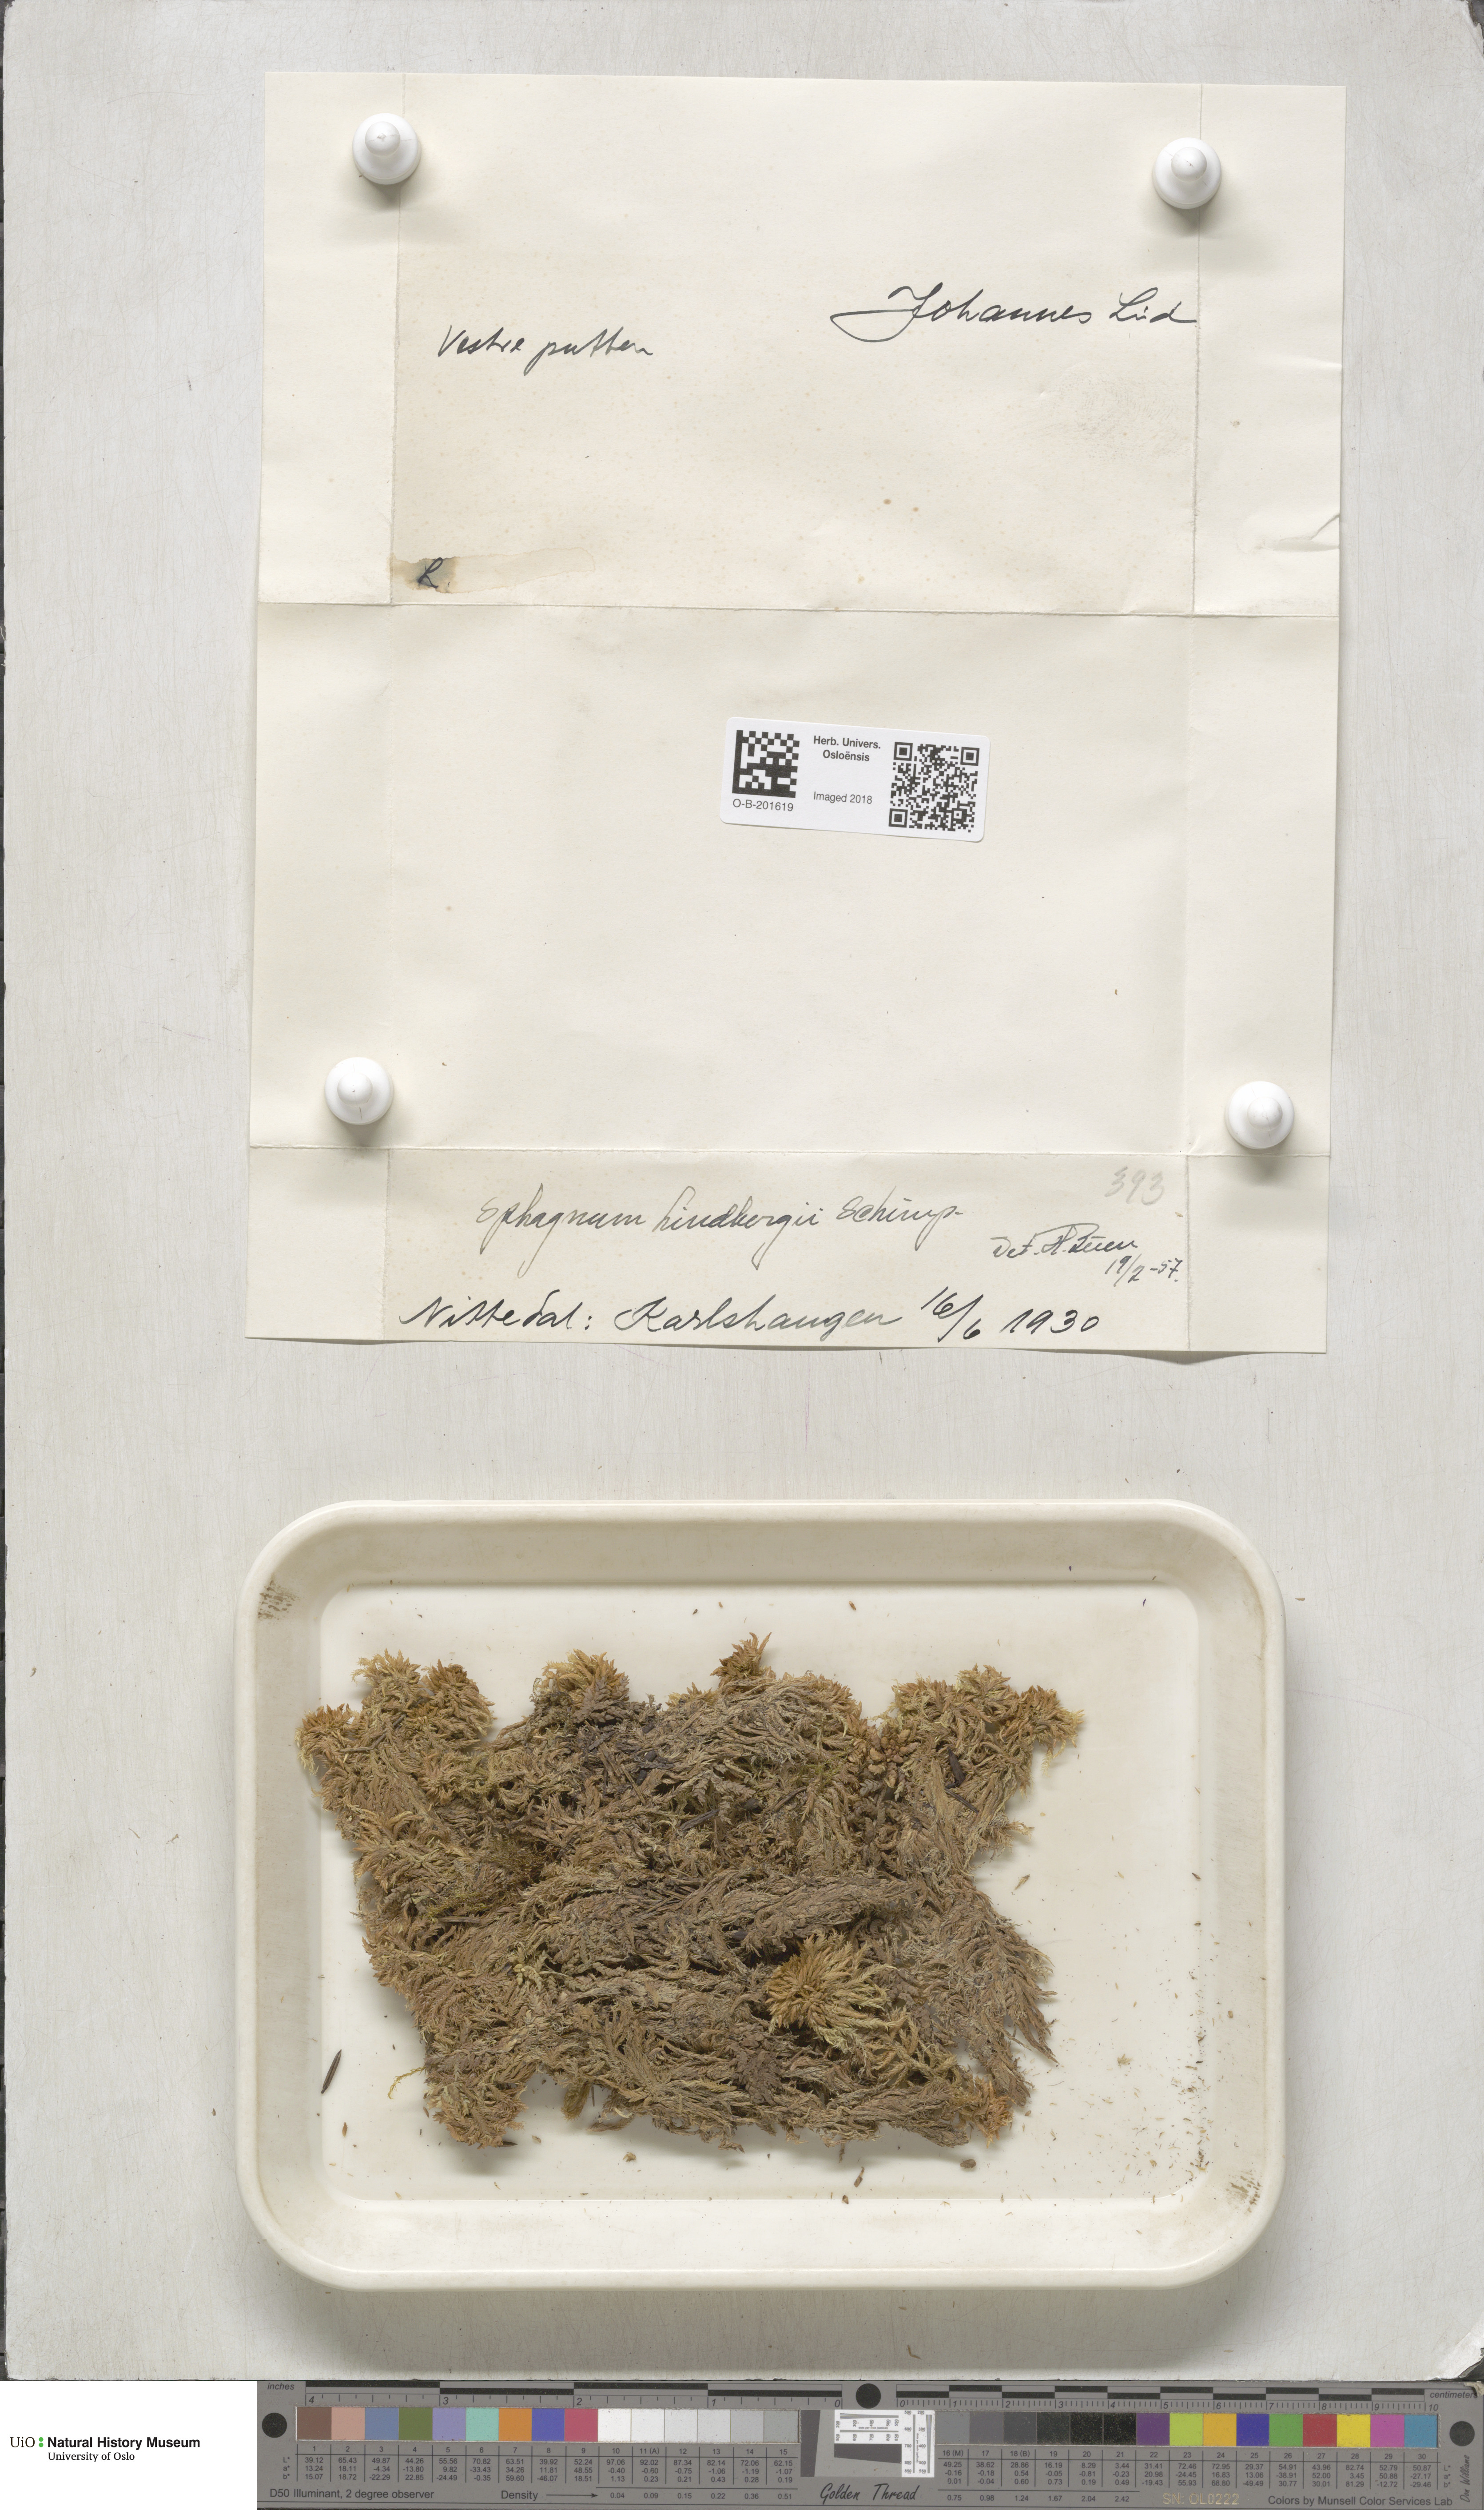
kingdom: Plantae
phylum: Bryophyta
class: Sphagnopsida
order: Sphagnales
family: Sphagnaceae
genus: Sphagnum
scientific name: Sphagnum lindbergii
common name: Lindberg's peat moss
